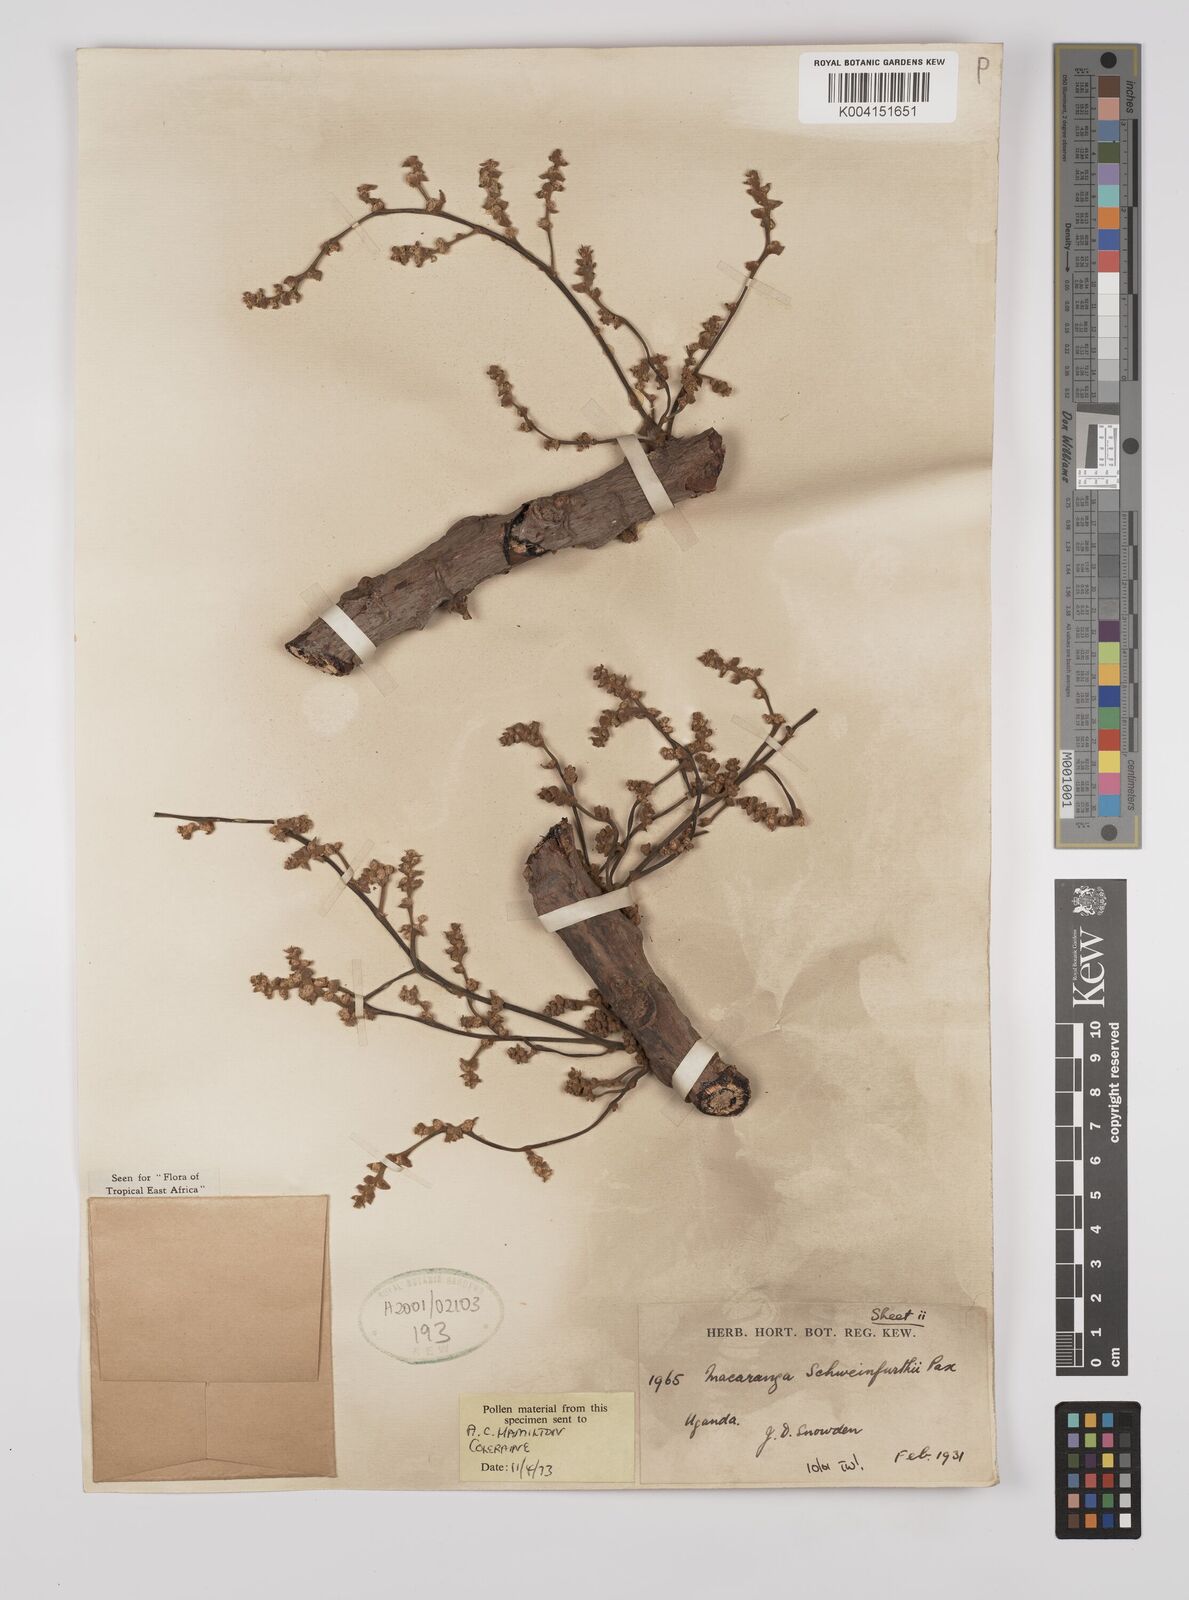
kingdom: Plantae
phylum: Tracheophyta
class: Magnoliopsida
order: Malpighiales
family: Euphorbiaceae
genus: Macaranga
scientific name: Macaranga schweinfurthii
